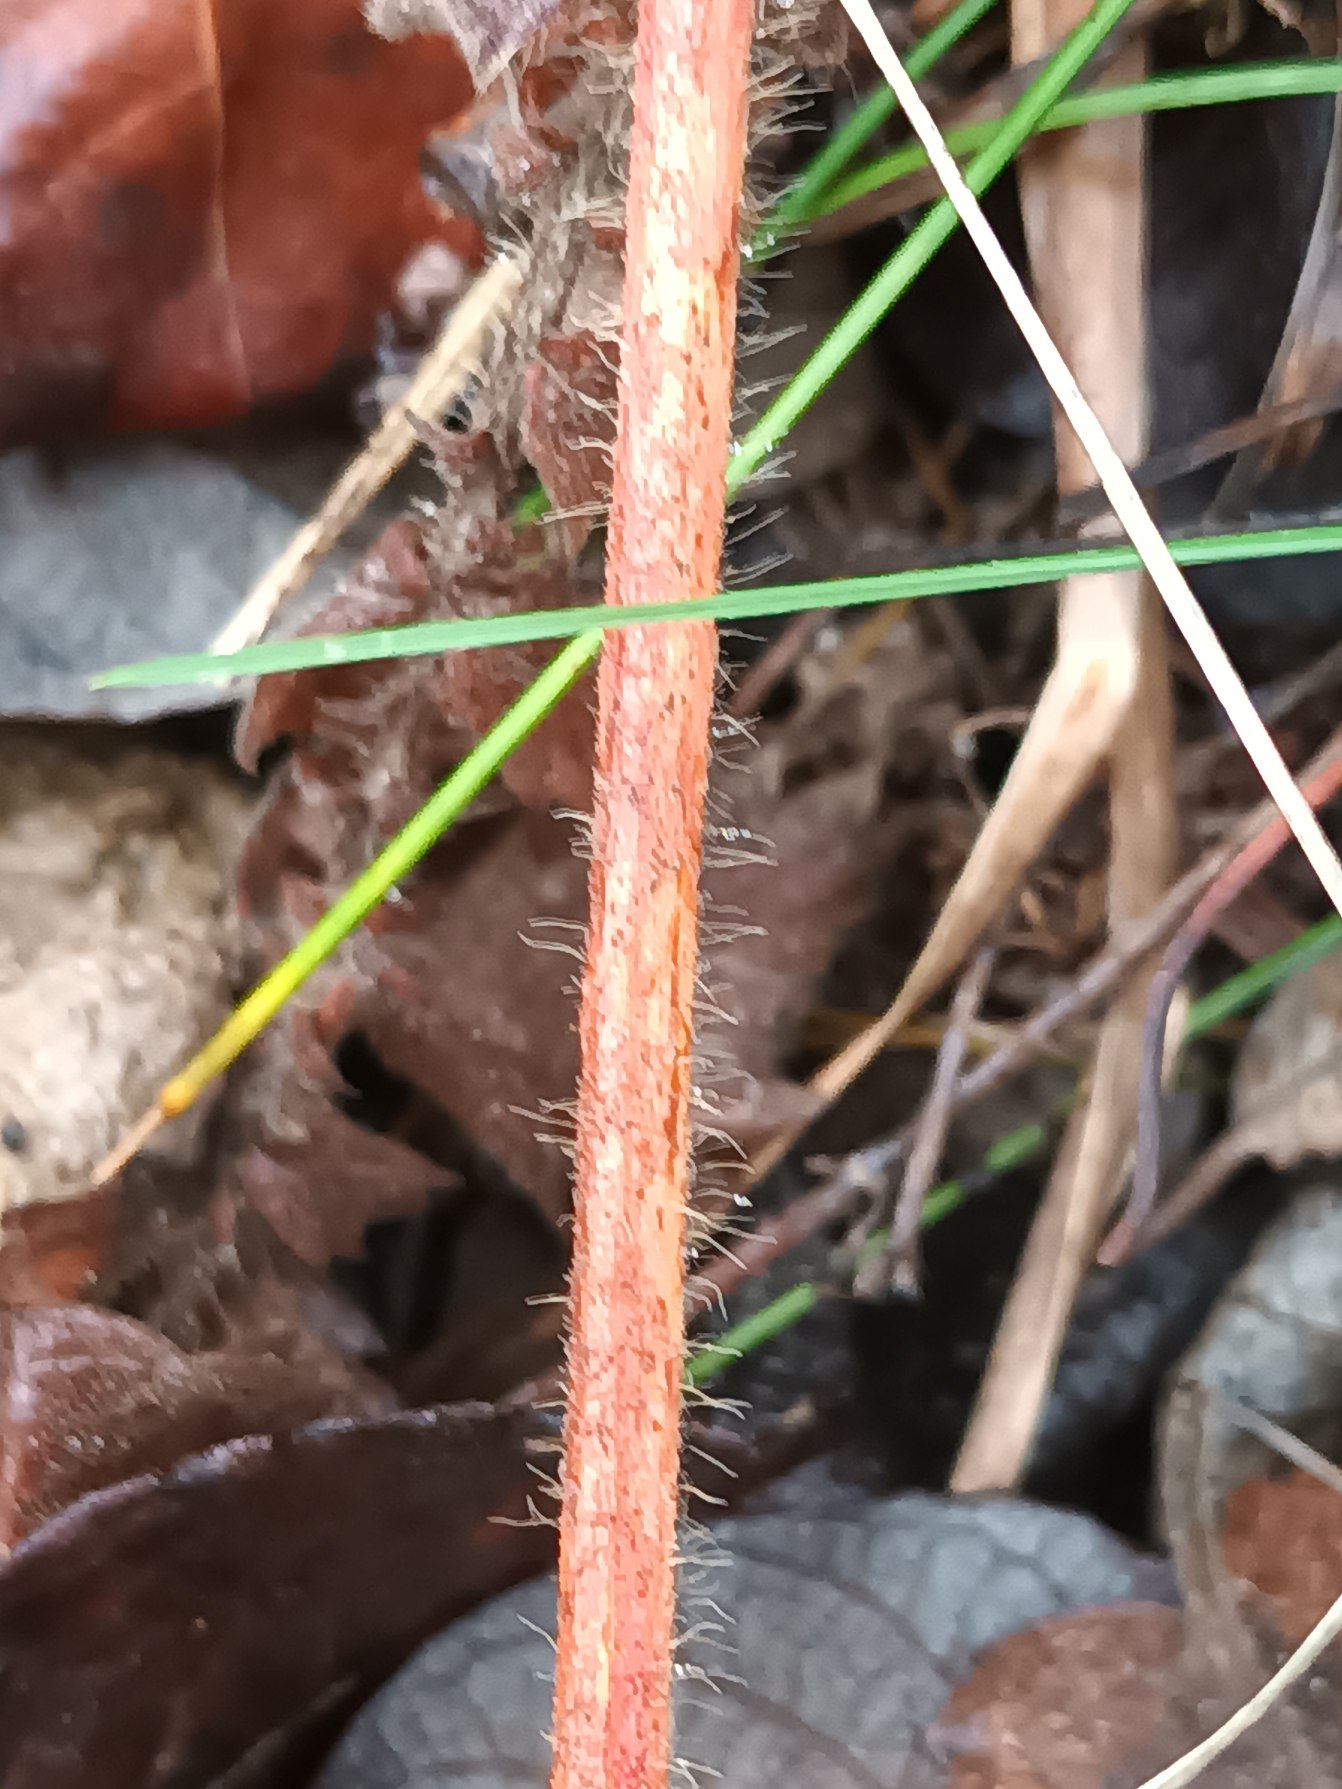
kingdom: Plantae
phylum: Tracheophyta
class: Magnoliopsida
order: Rosales
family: Rosaceae
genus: Agrimonia
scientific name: Agrimonia eupatoria
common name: Almindelig agermåne
